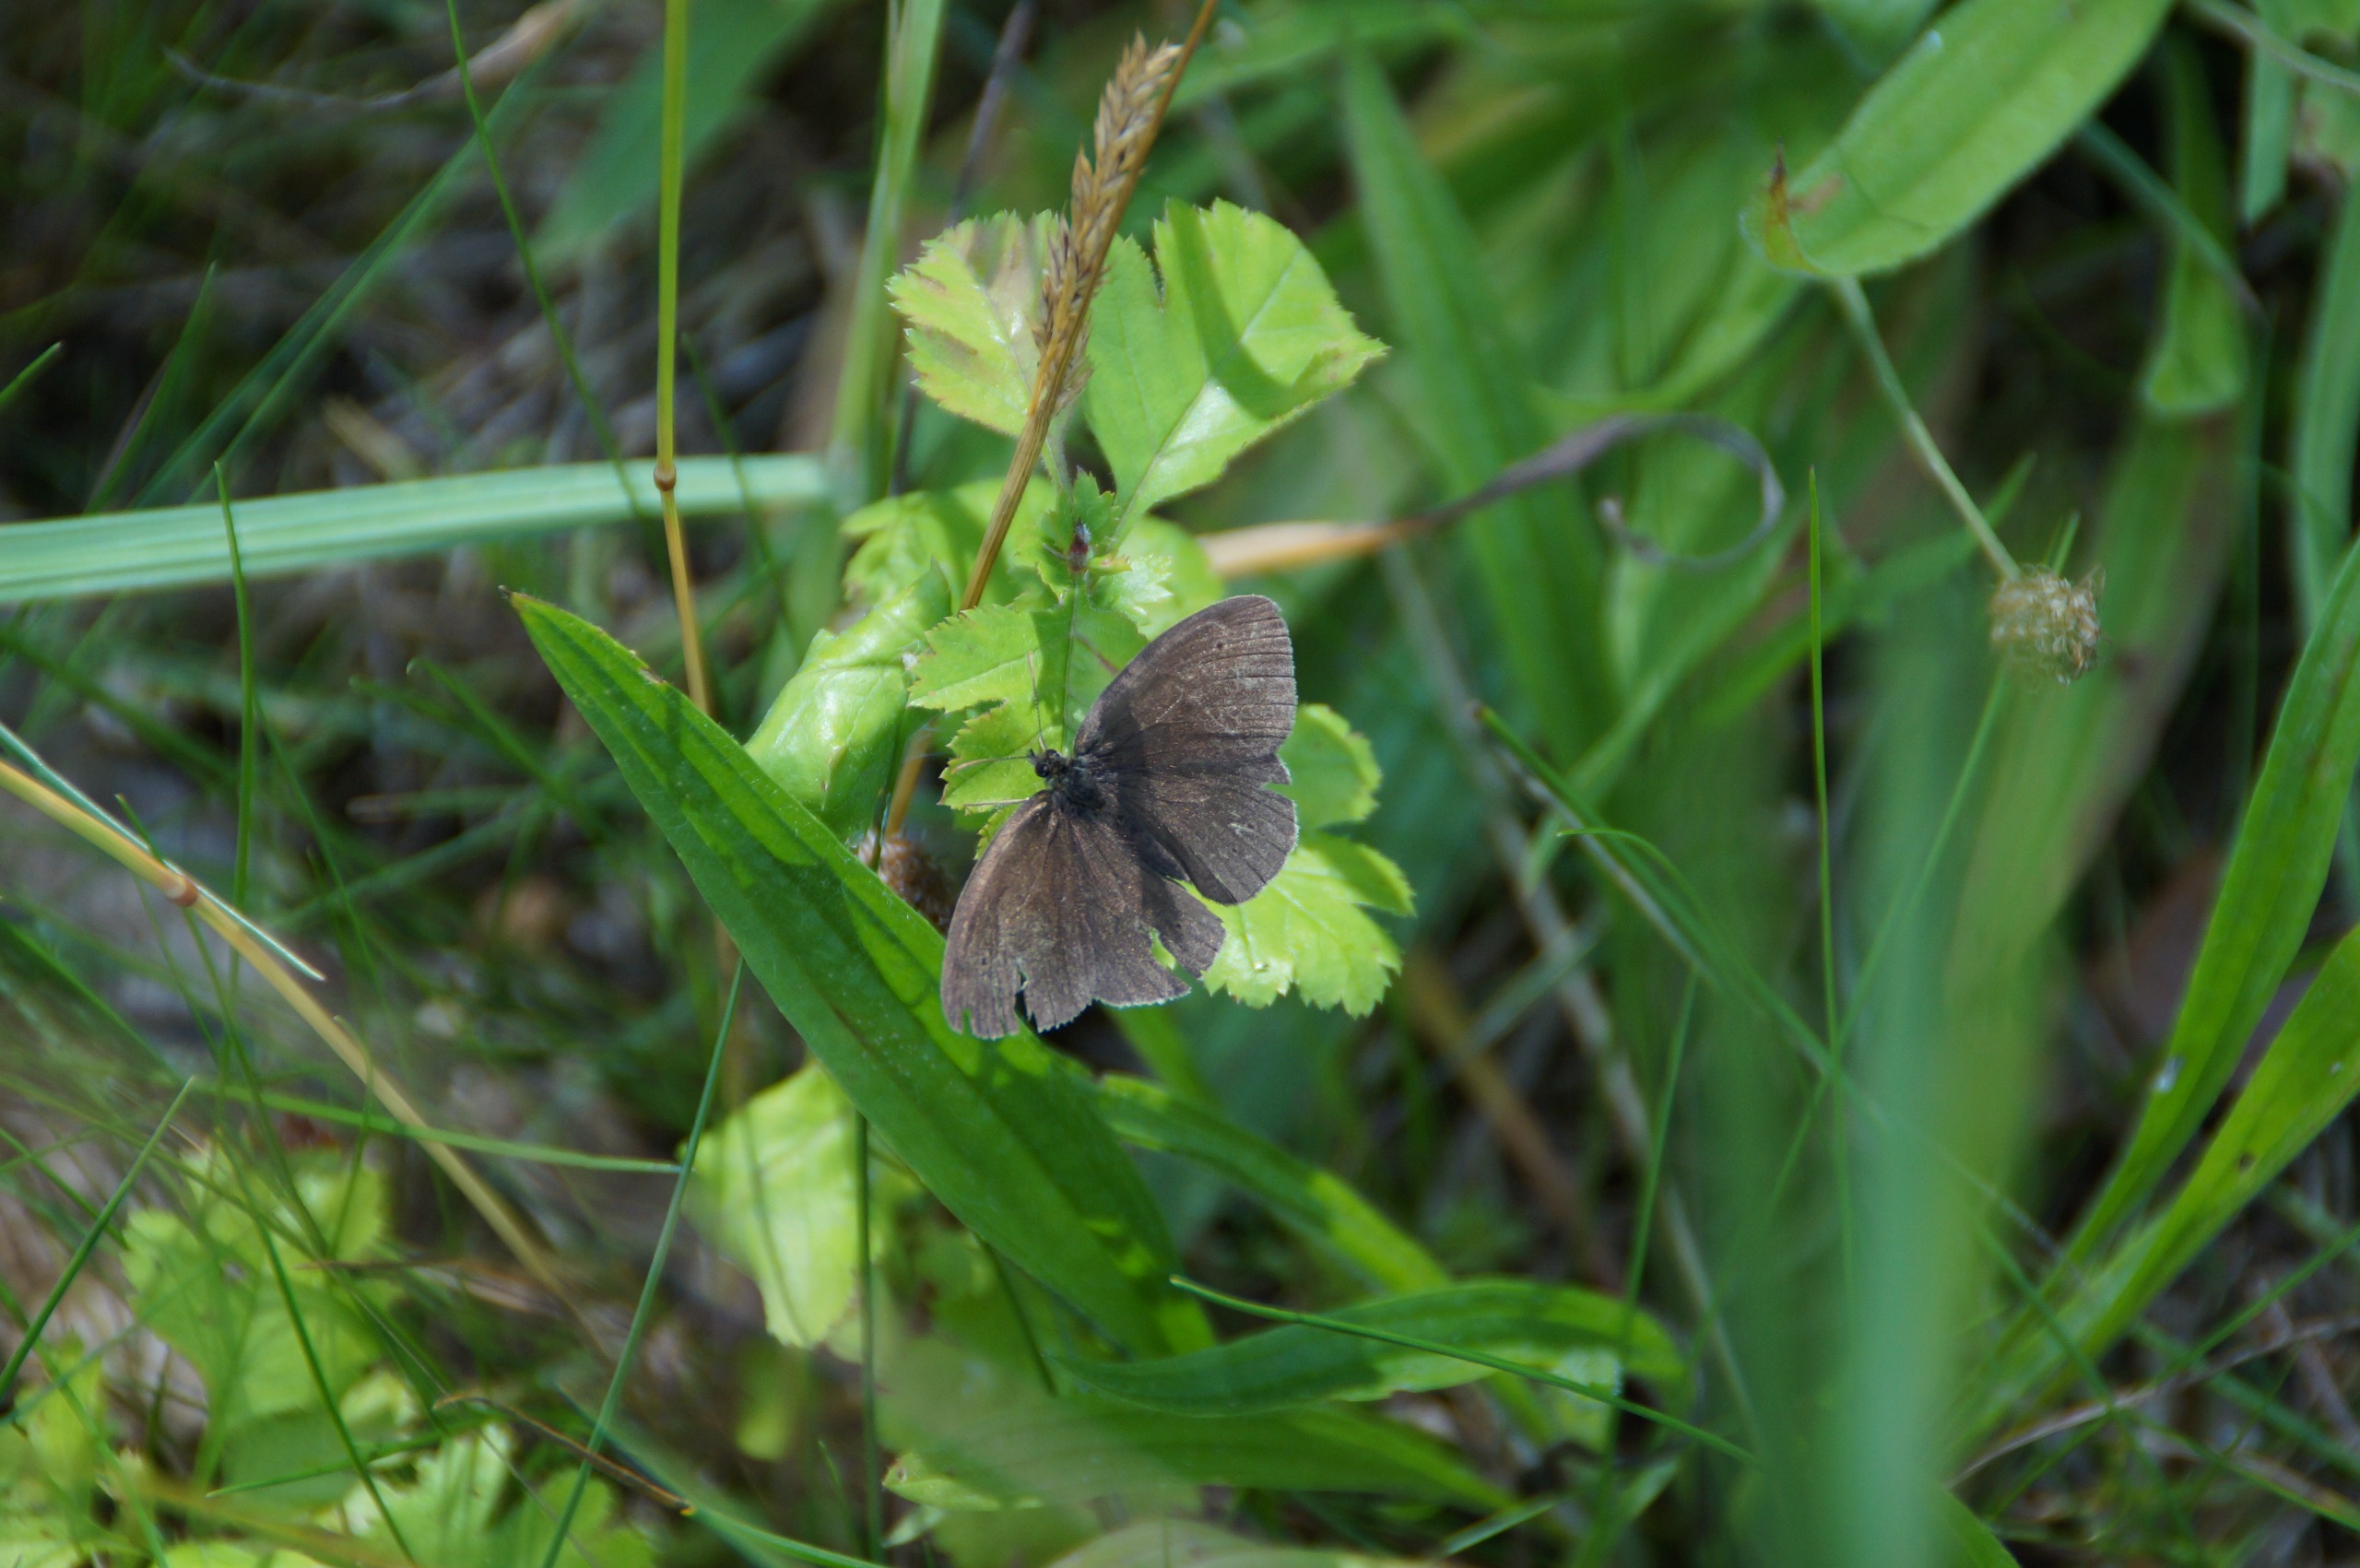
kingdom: Animalia
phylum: Arthropoda
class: Insecta
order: Lepidoptera
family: Nymphalidae
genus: Aphantopus
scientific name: Aphantopus hyperantus
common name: Engrandøje
